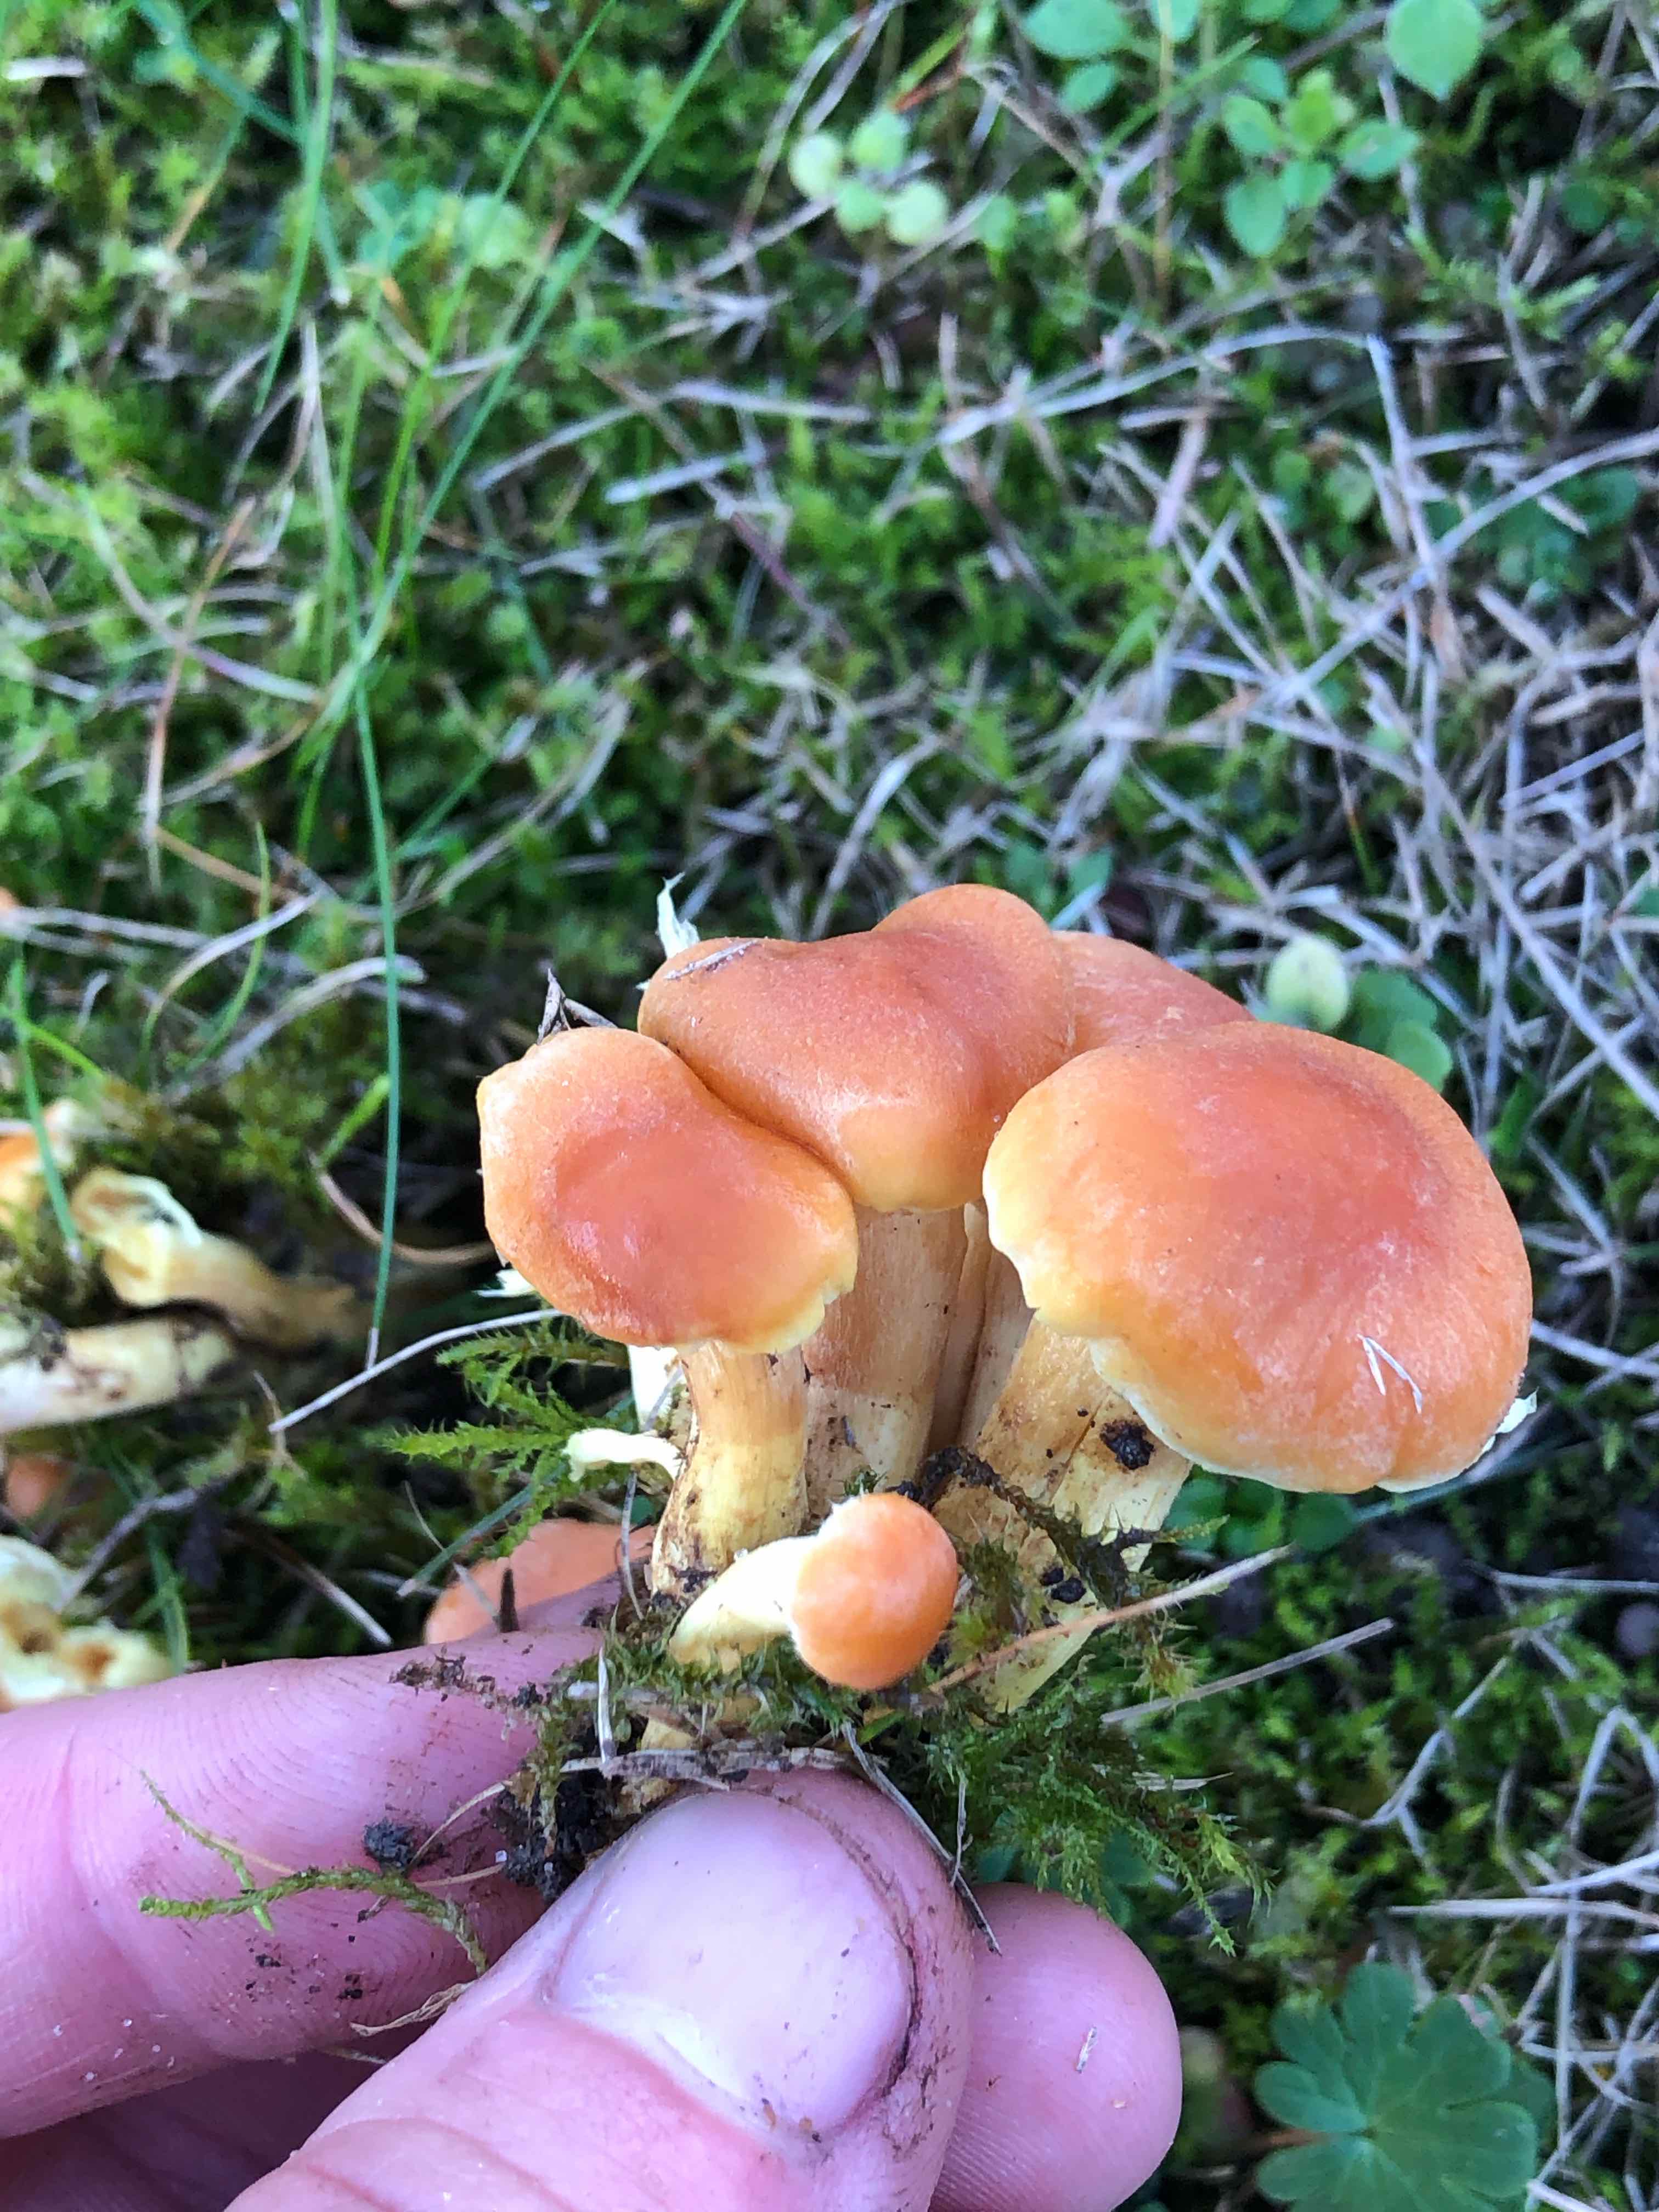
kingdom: Fungi
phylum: Basidiomycota
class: Agaricomycetes
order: Agaricales
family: Strophariaceae
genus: Hypholoma
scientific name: Hypholoma fasciculare
